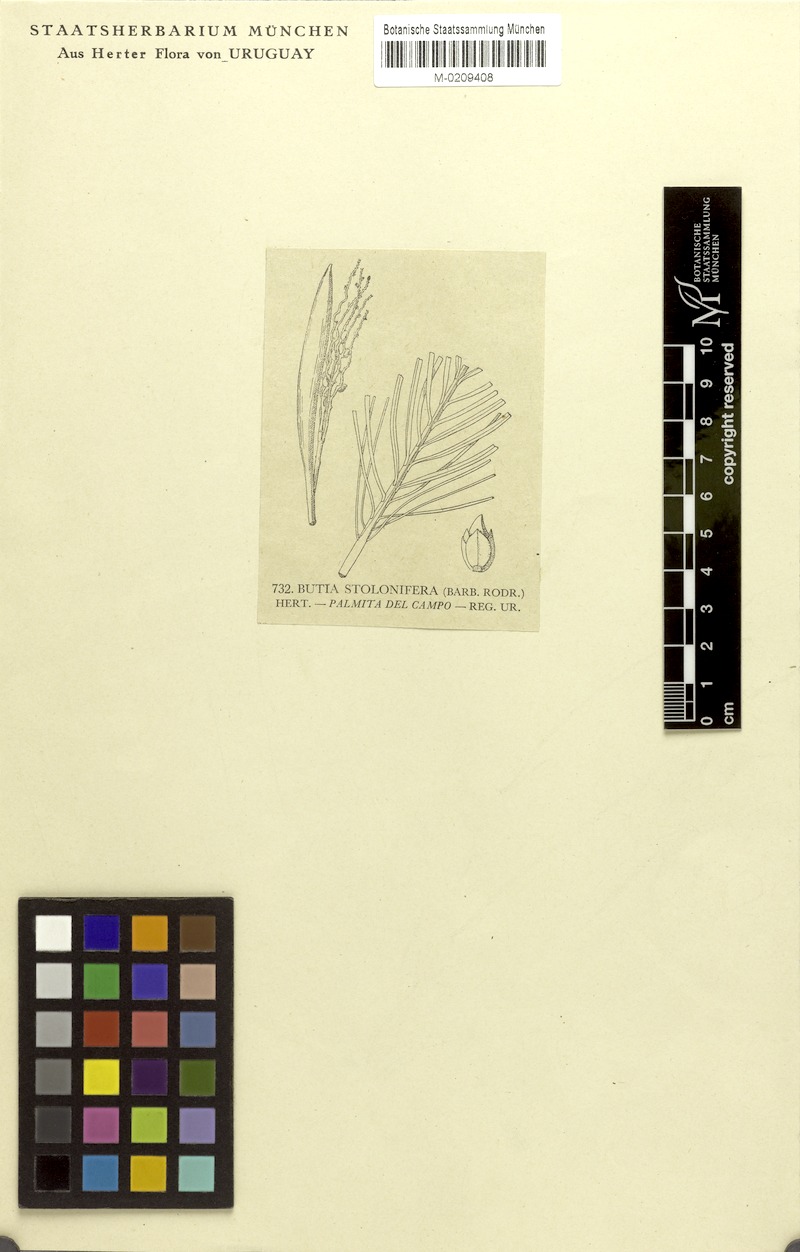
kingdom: Plantae
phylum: Tracheophyta
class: Liliopsida
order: Arecales
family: Arecaceae
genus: Butia
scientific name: Butia stolonifera
